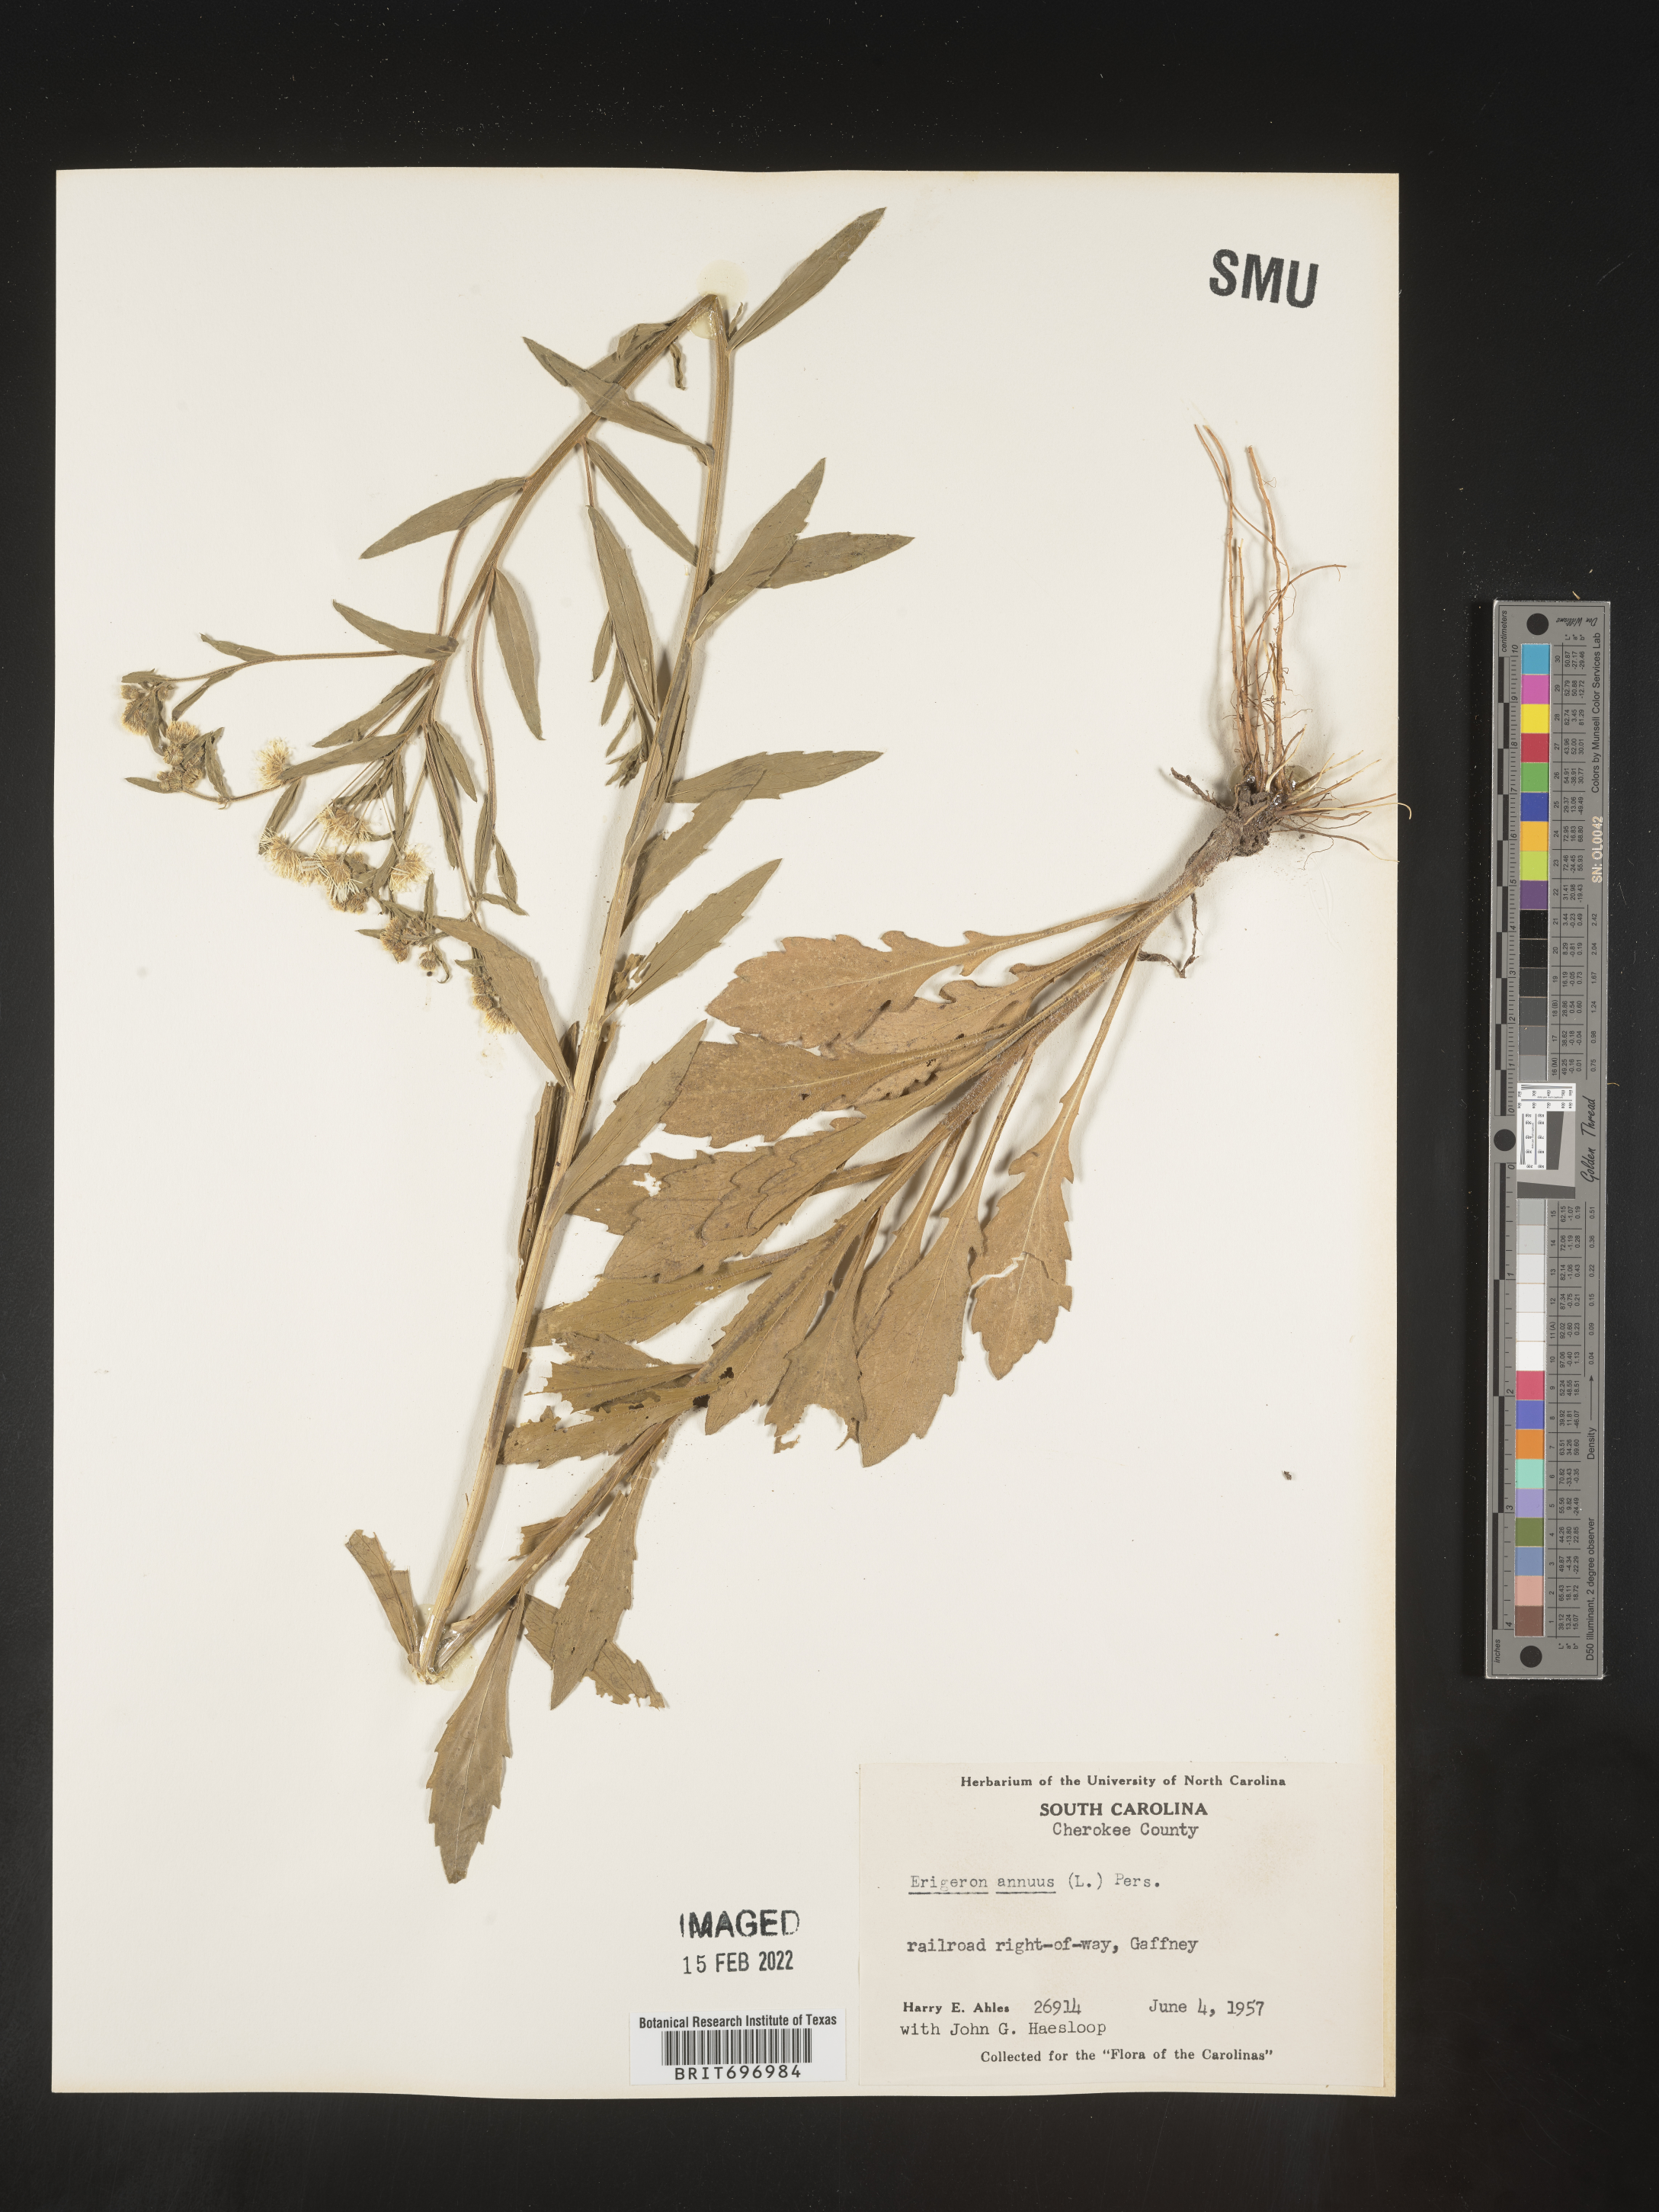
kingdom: Plantae
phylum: Tracheophyta
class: Magnoliopsida
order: Asterales
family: Asteraceae
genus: Erigeron
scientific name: Erigeron annuus
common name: Tall fleabane
